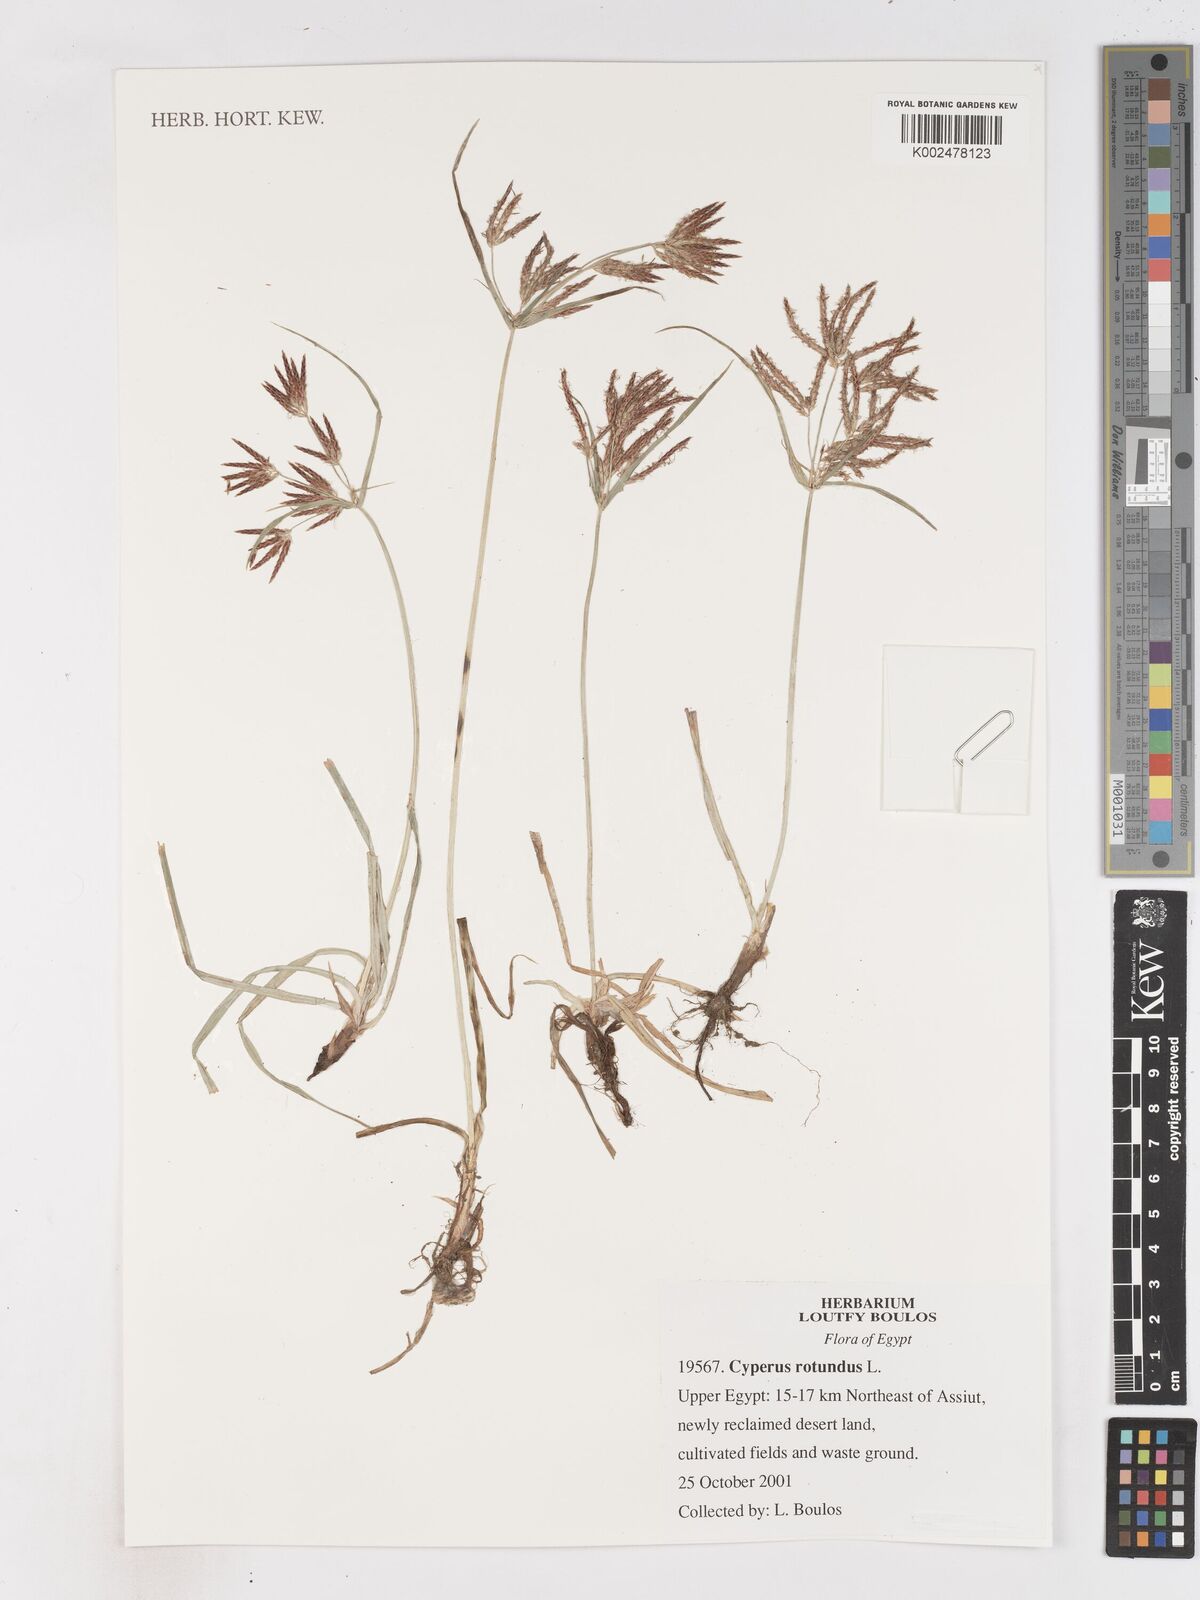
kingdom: Plantae
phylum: Tracheophyta
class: Liliopsida
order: Poales
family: Cyperaceae
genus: Cyperus
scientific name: Cyperus rotundus
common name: Nutgrass
